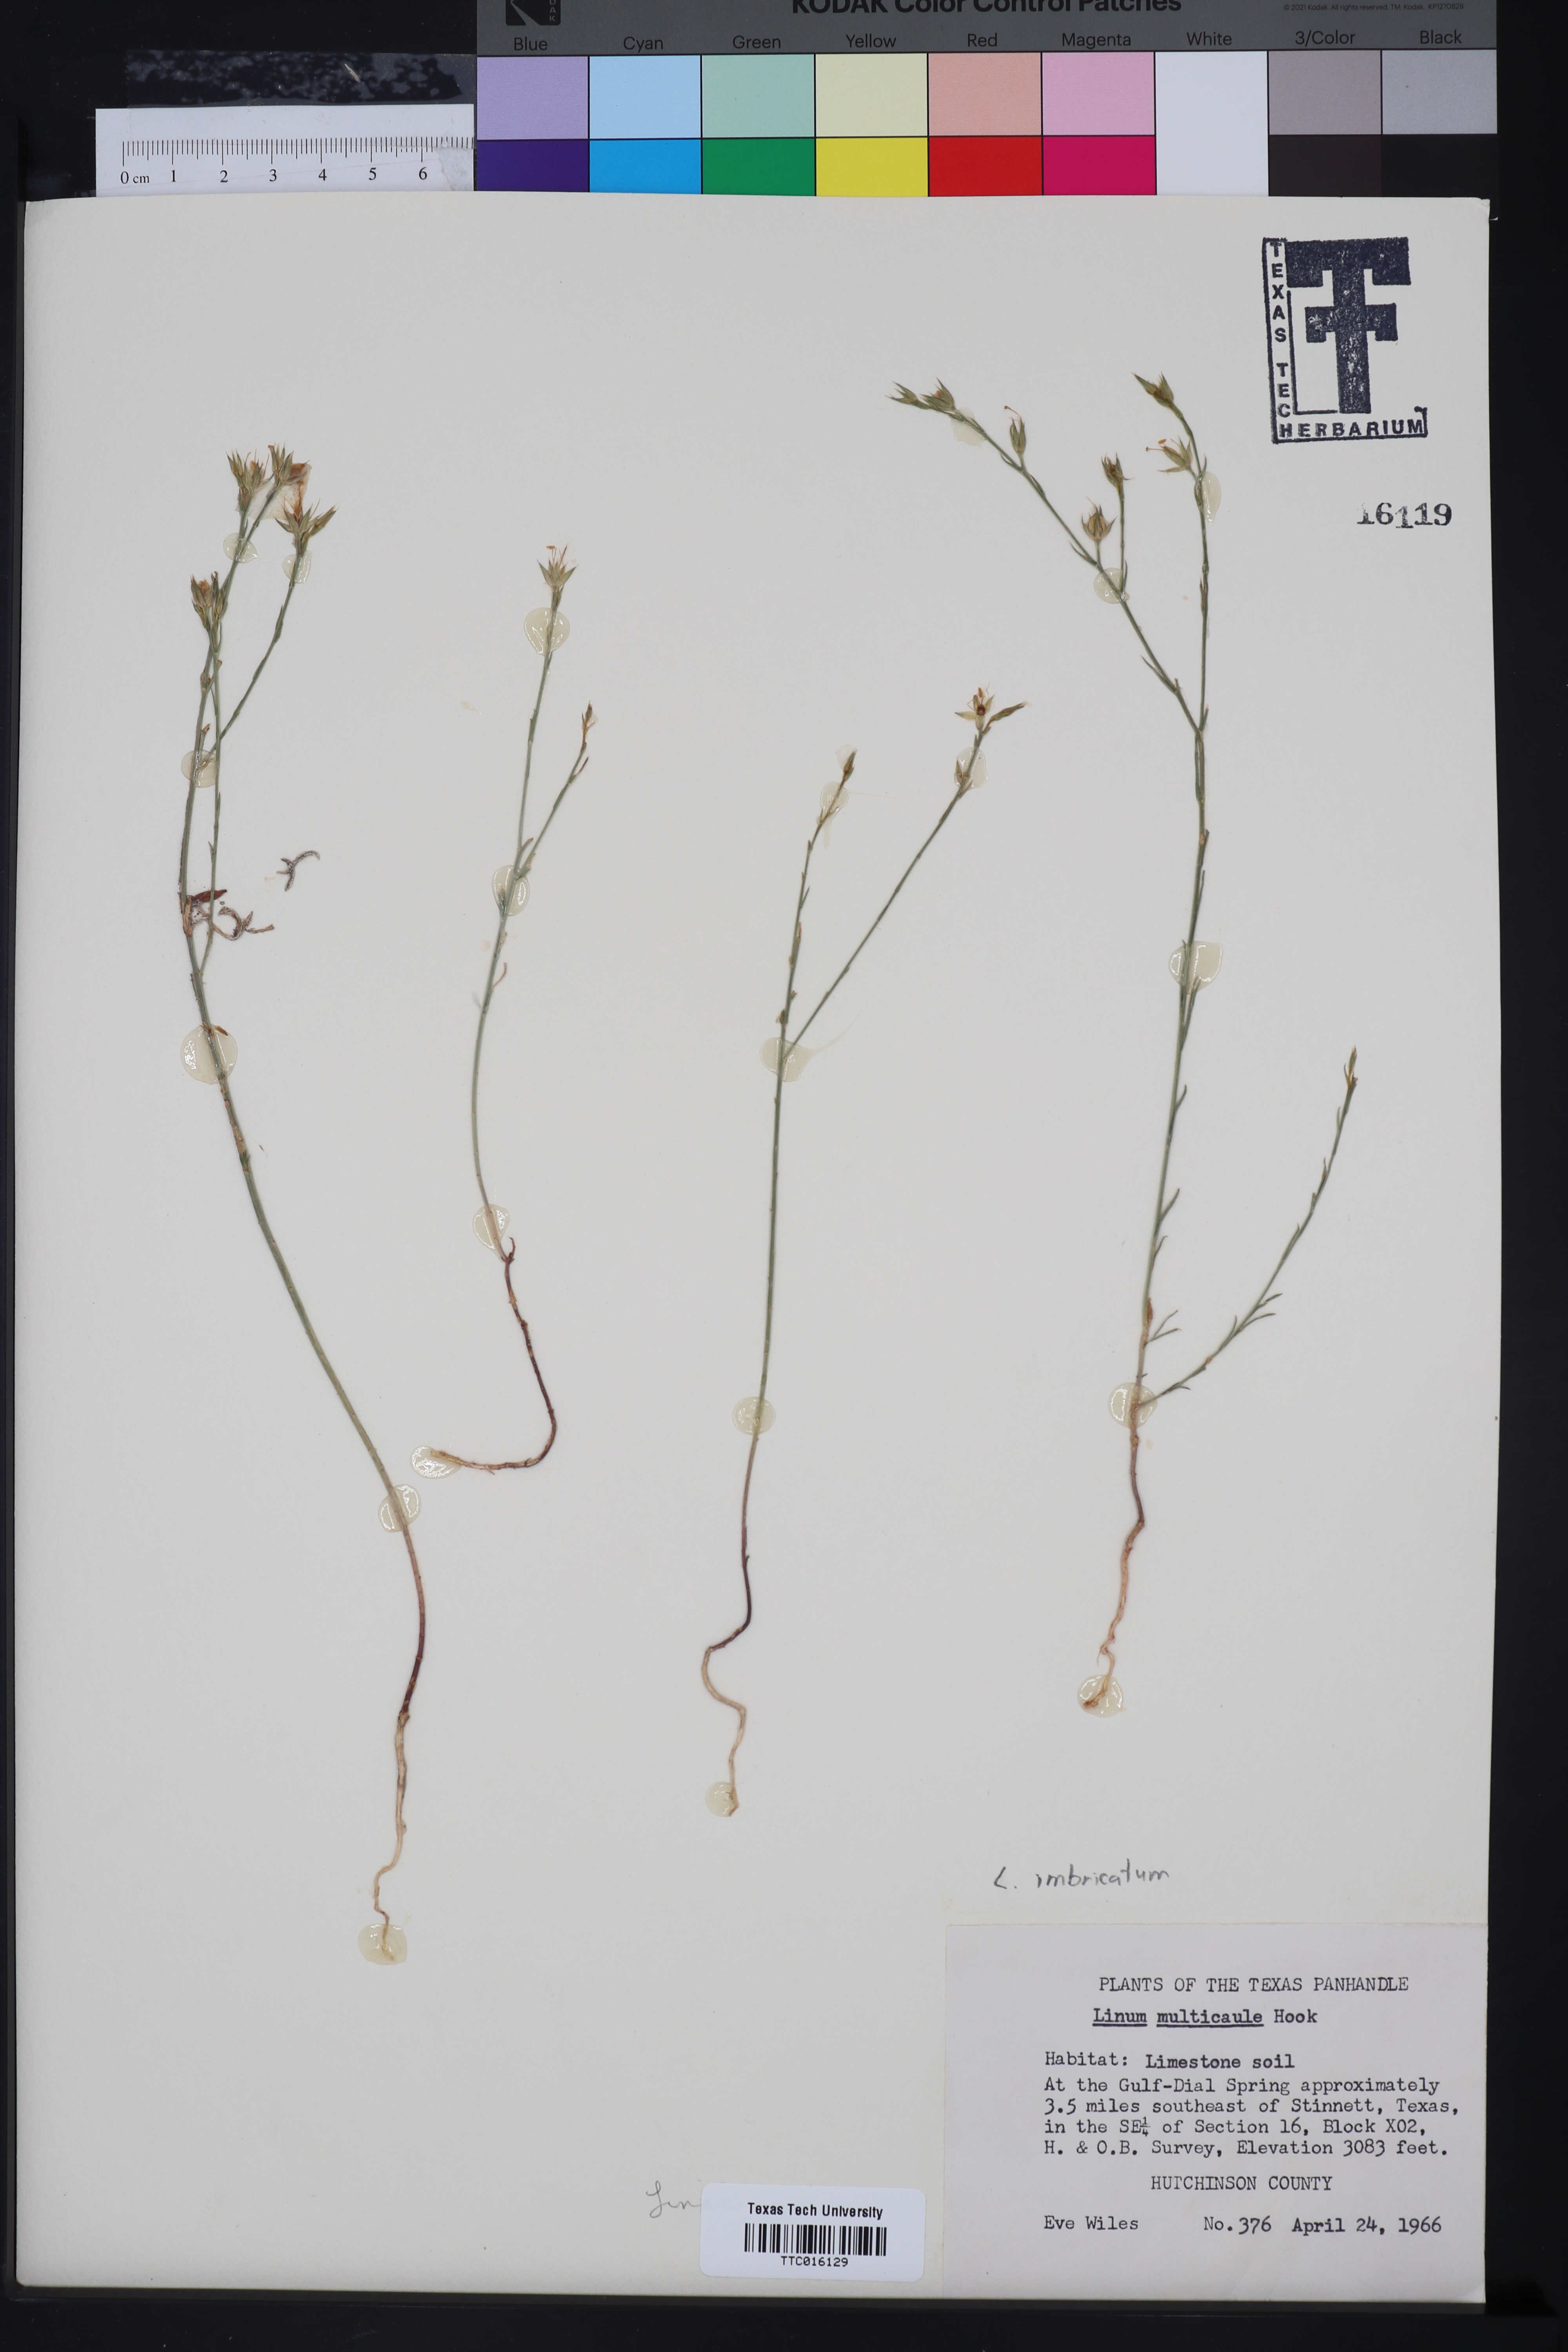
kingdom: Plantae
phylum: Tracheophyta
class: Magnoliopsida
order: Malpighiales
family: Linaceae
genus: Linum
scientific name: Linum imbricatum
